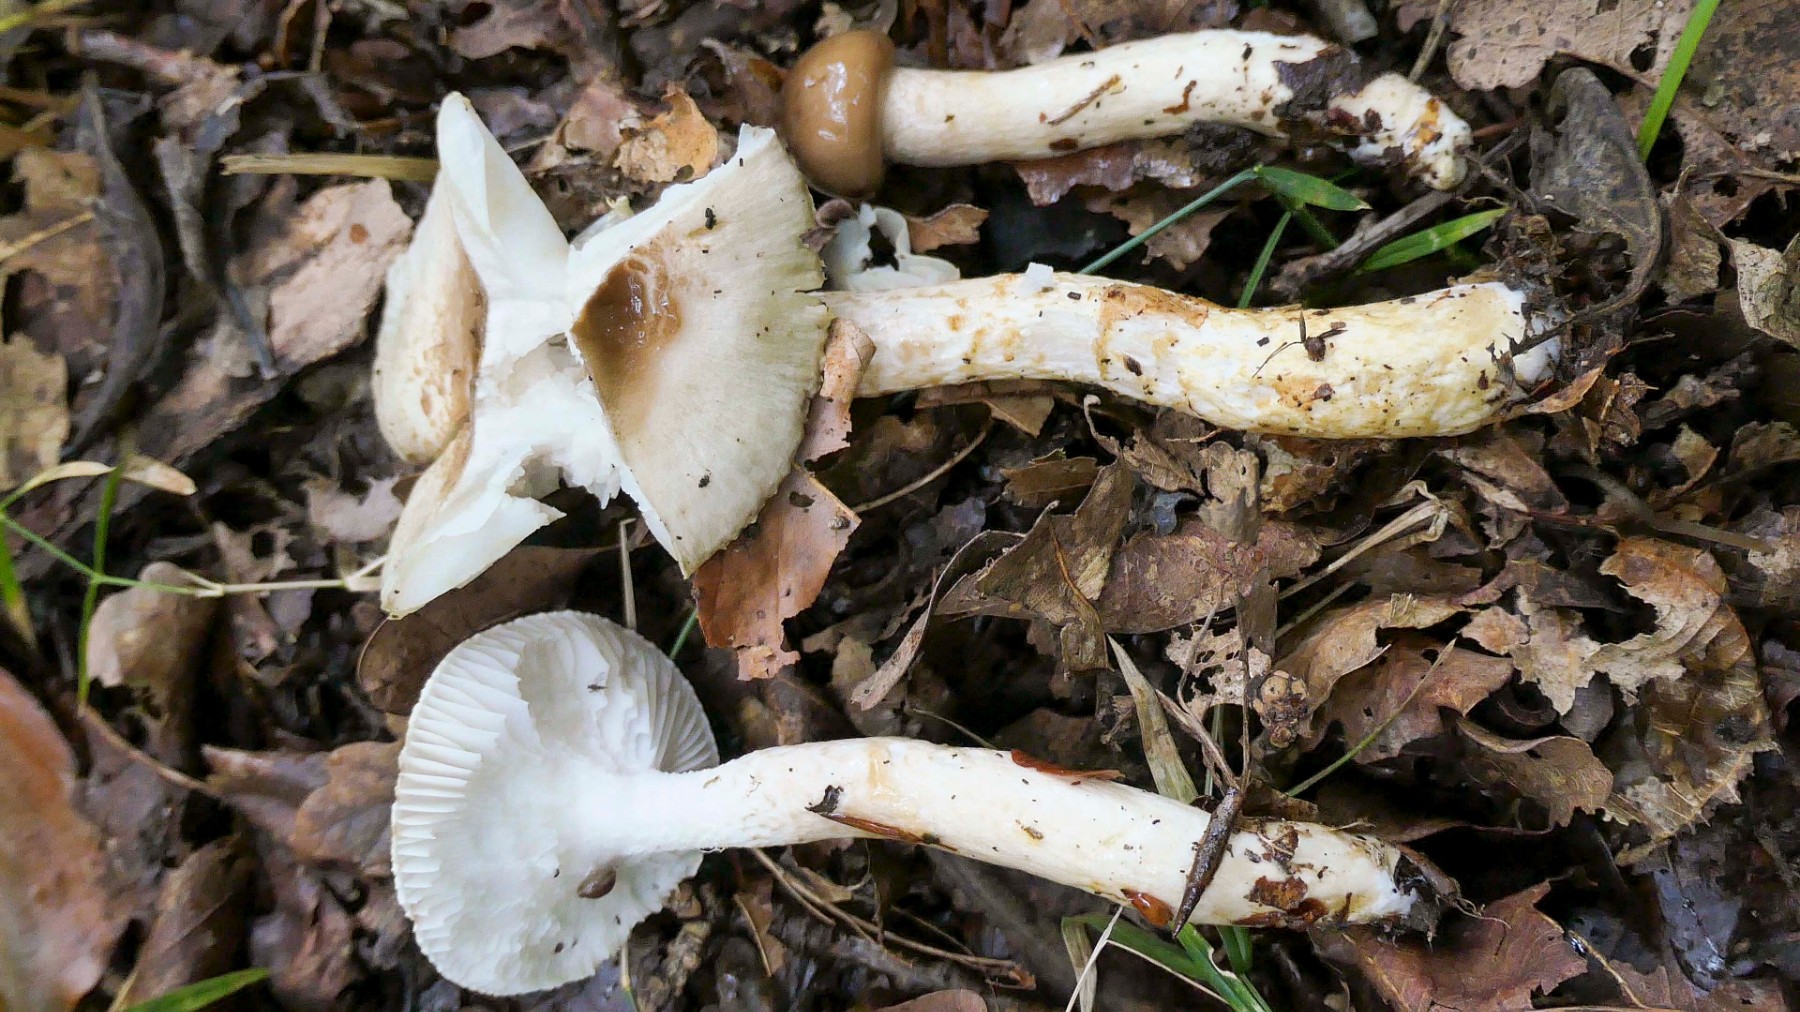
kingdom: Fungi
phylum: Basidiomycota
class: Agaricomycetes
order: Agaricales
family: Hygrophoraceae
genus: Hygrophorus
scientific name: Hygrophorus glutinifer
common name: tvefarvet sneglehat
